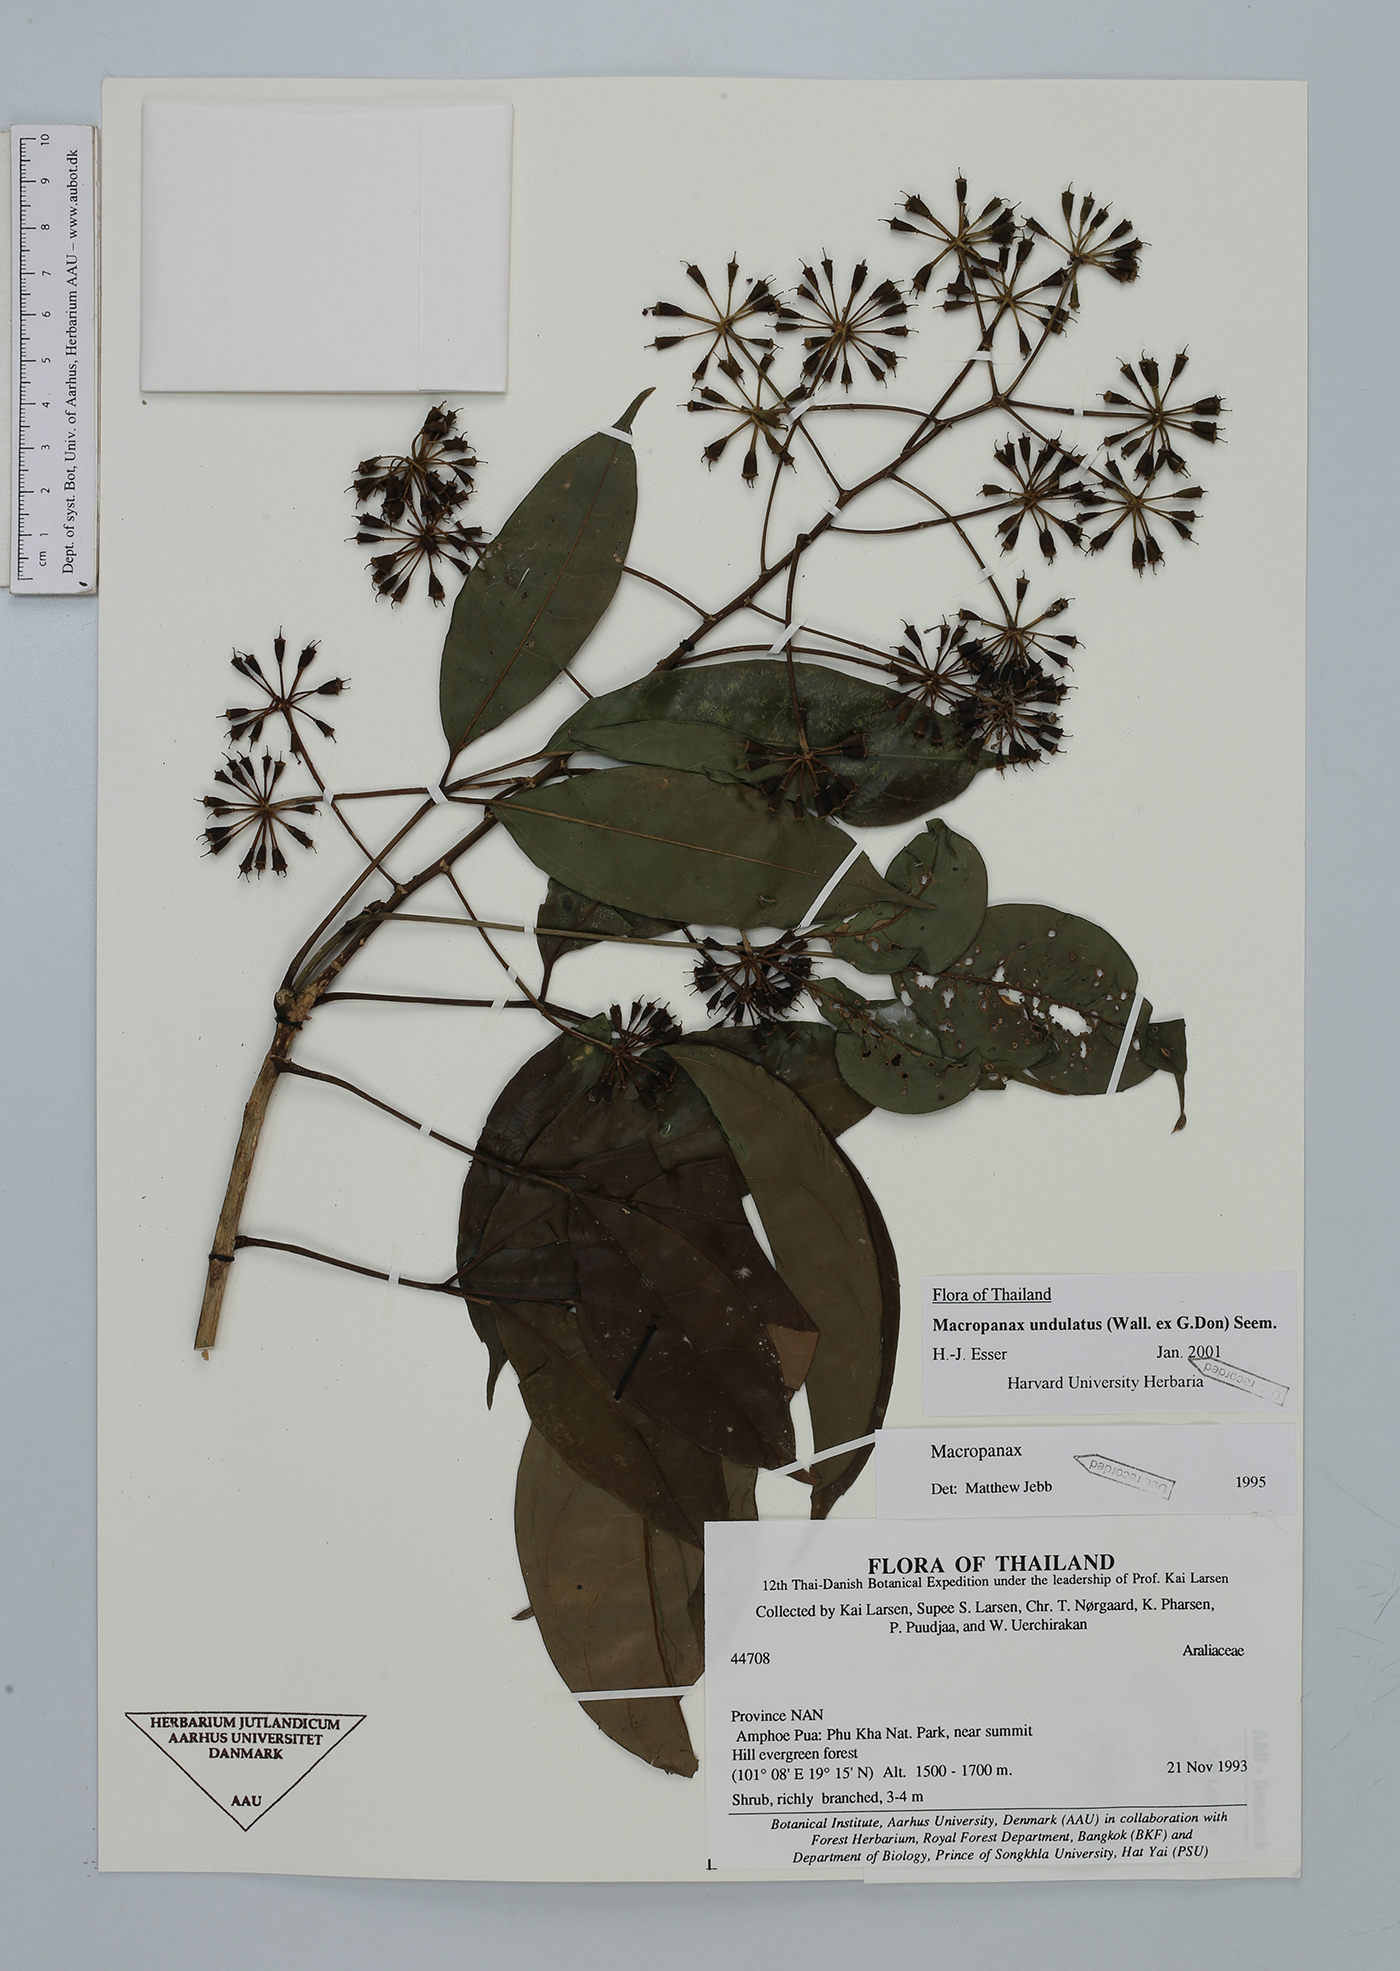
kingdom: Plantae
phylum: Tracheophyta
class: Magnoliopsida
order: Apiales
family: Araliaceae
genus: Macropanax
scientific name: Macropanax undulatus
